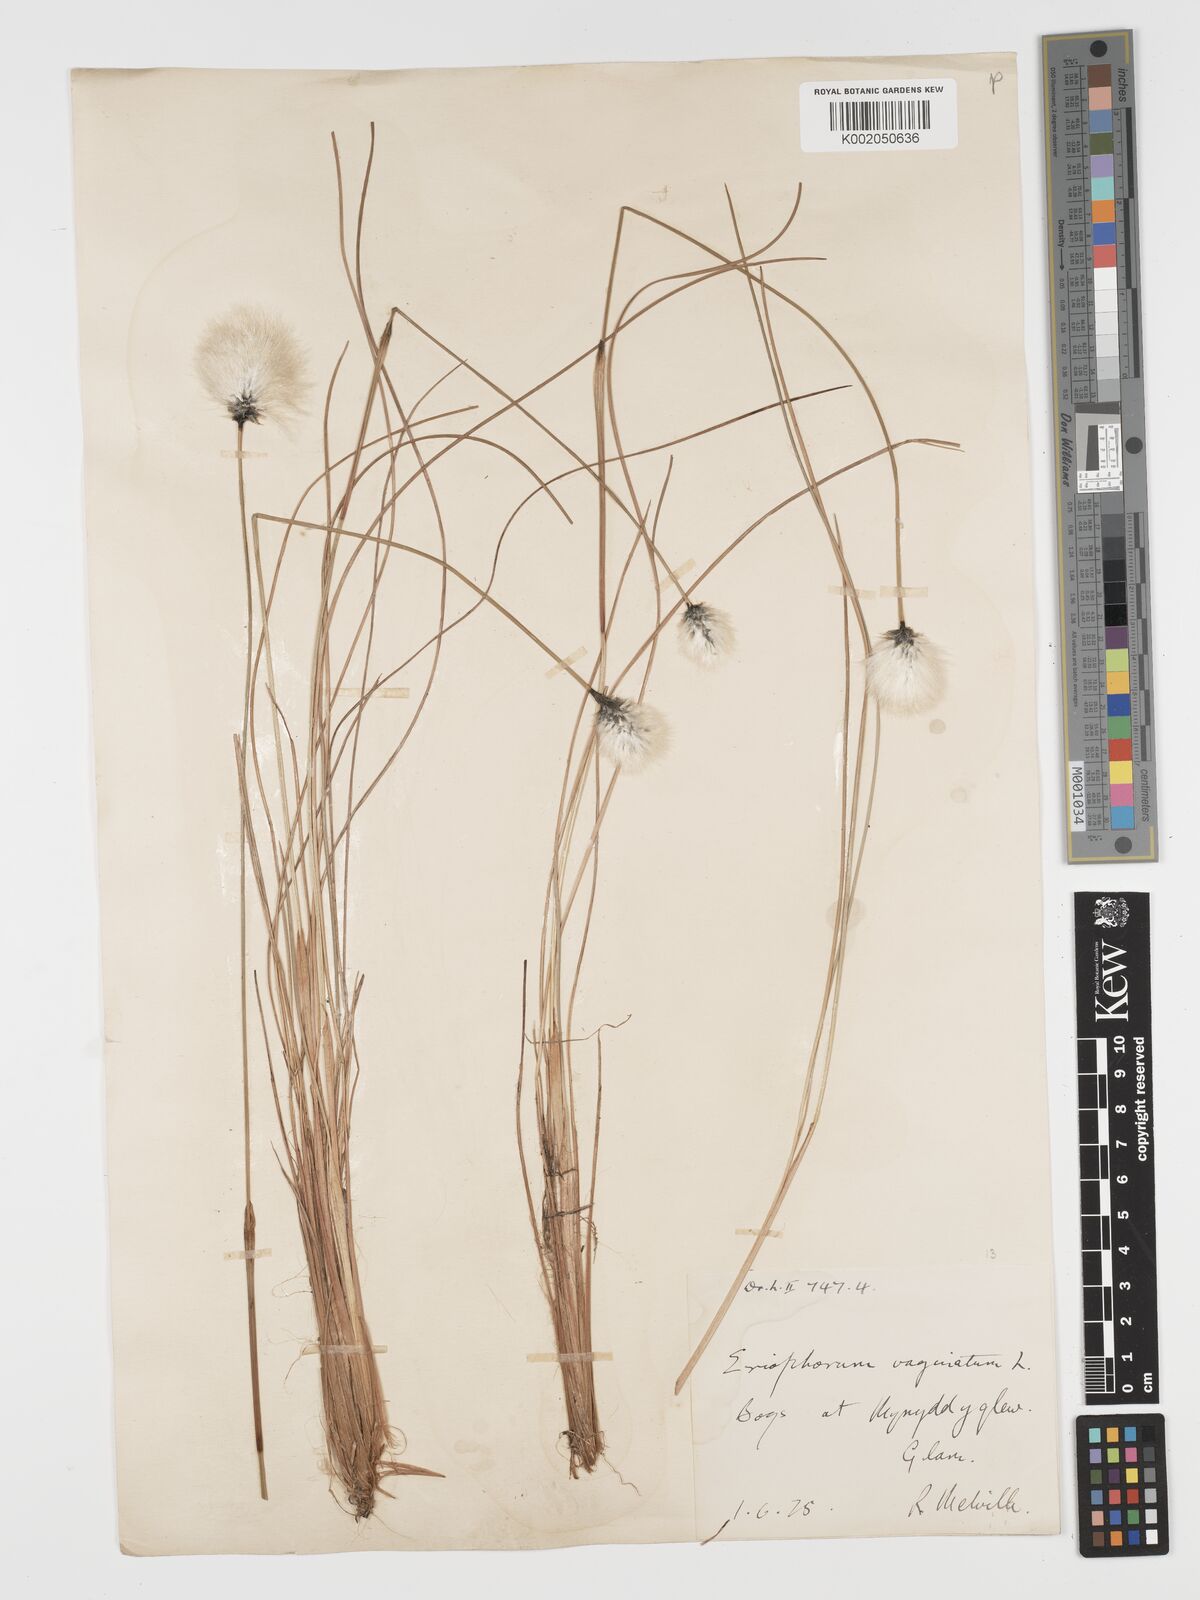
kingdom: Plantae
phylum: Tracheophyta
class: Liliopsida
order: Poales
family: Cyperaceae
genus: Eriophorum
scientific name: Eriophorum vaginatum
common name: Hare's-tail cottongrass
